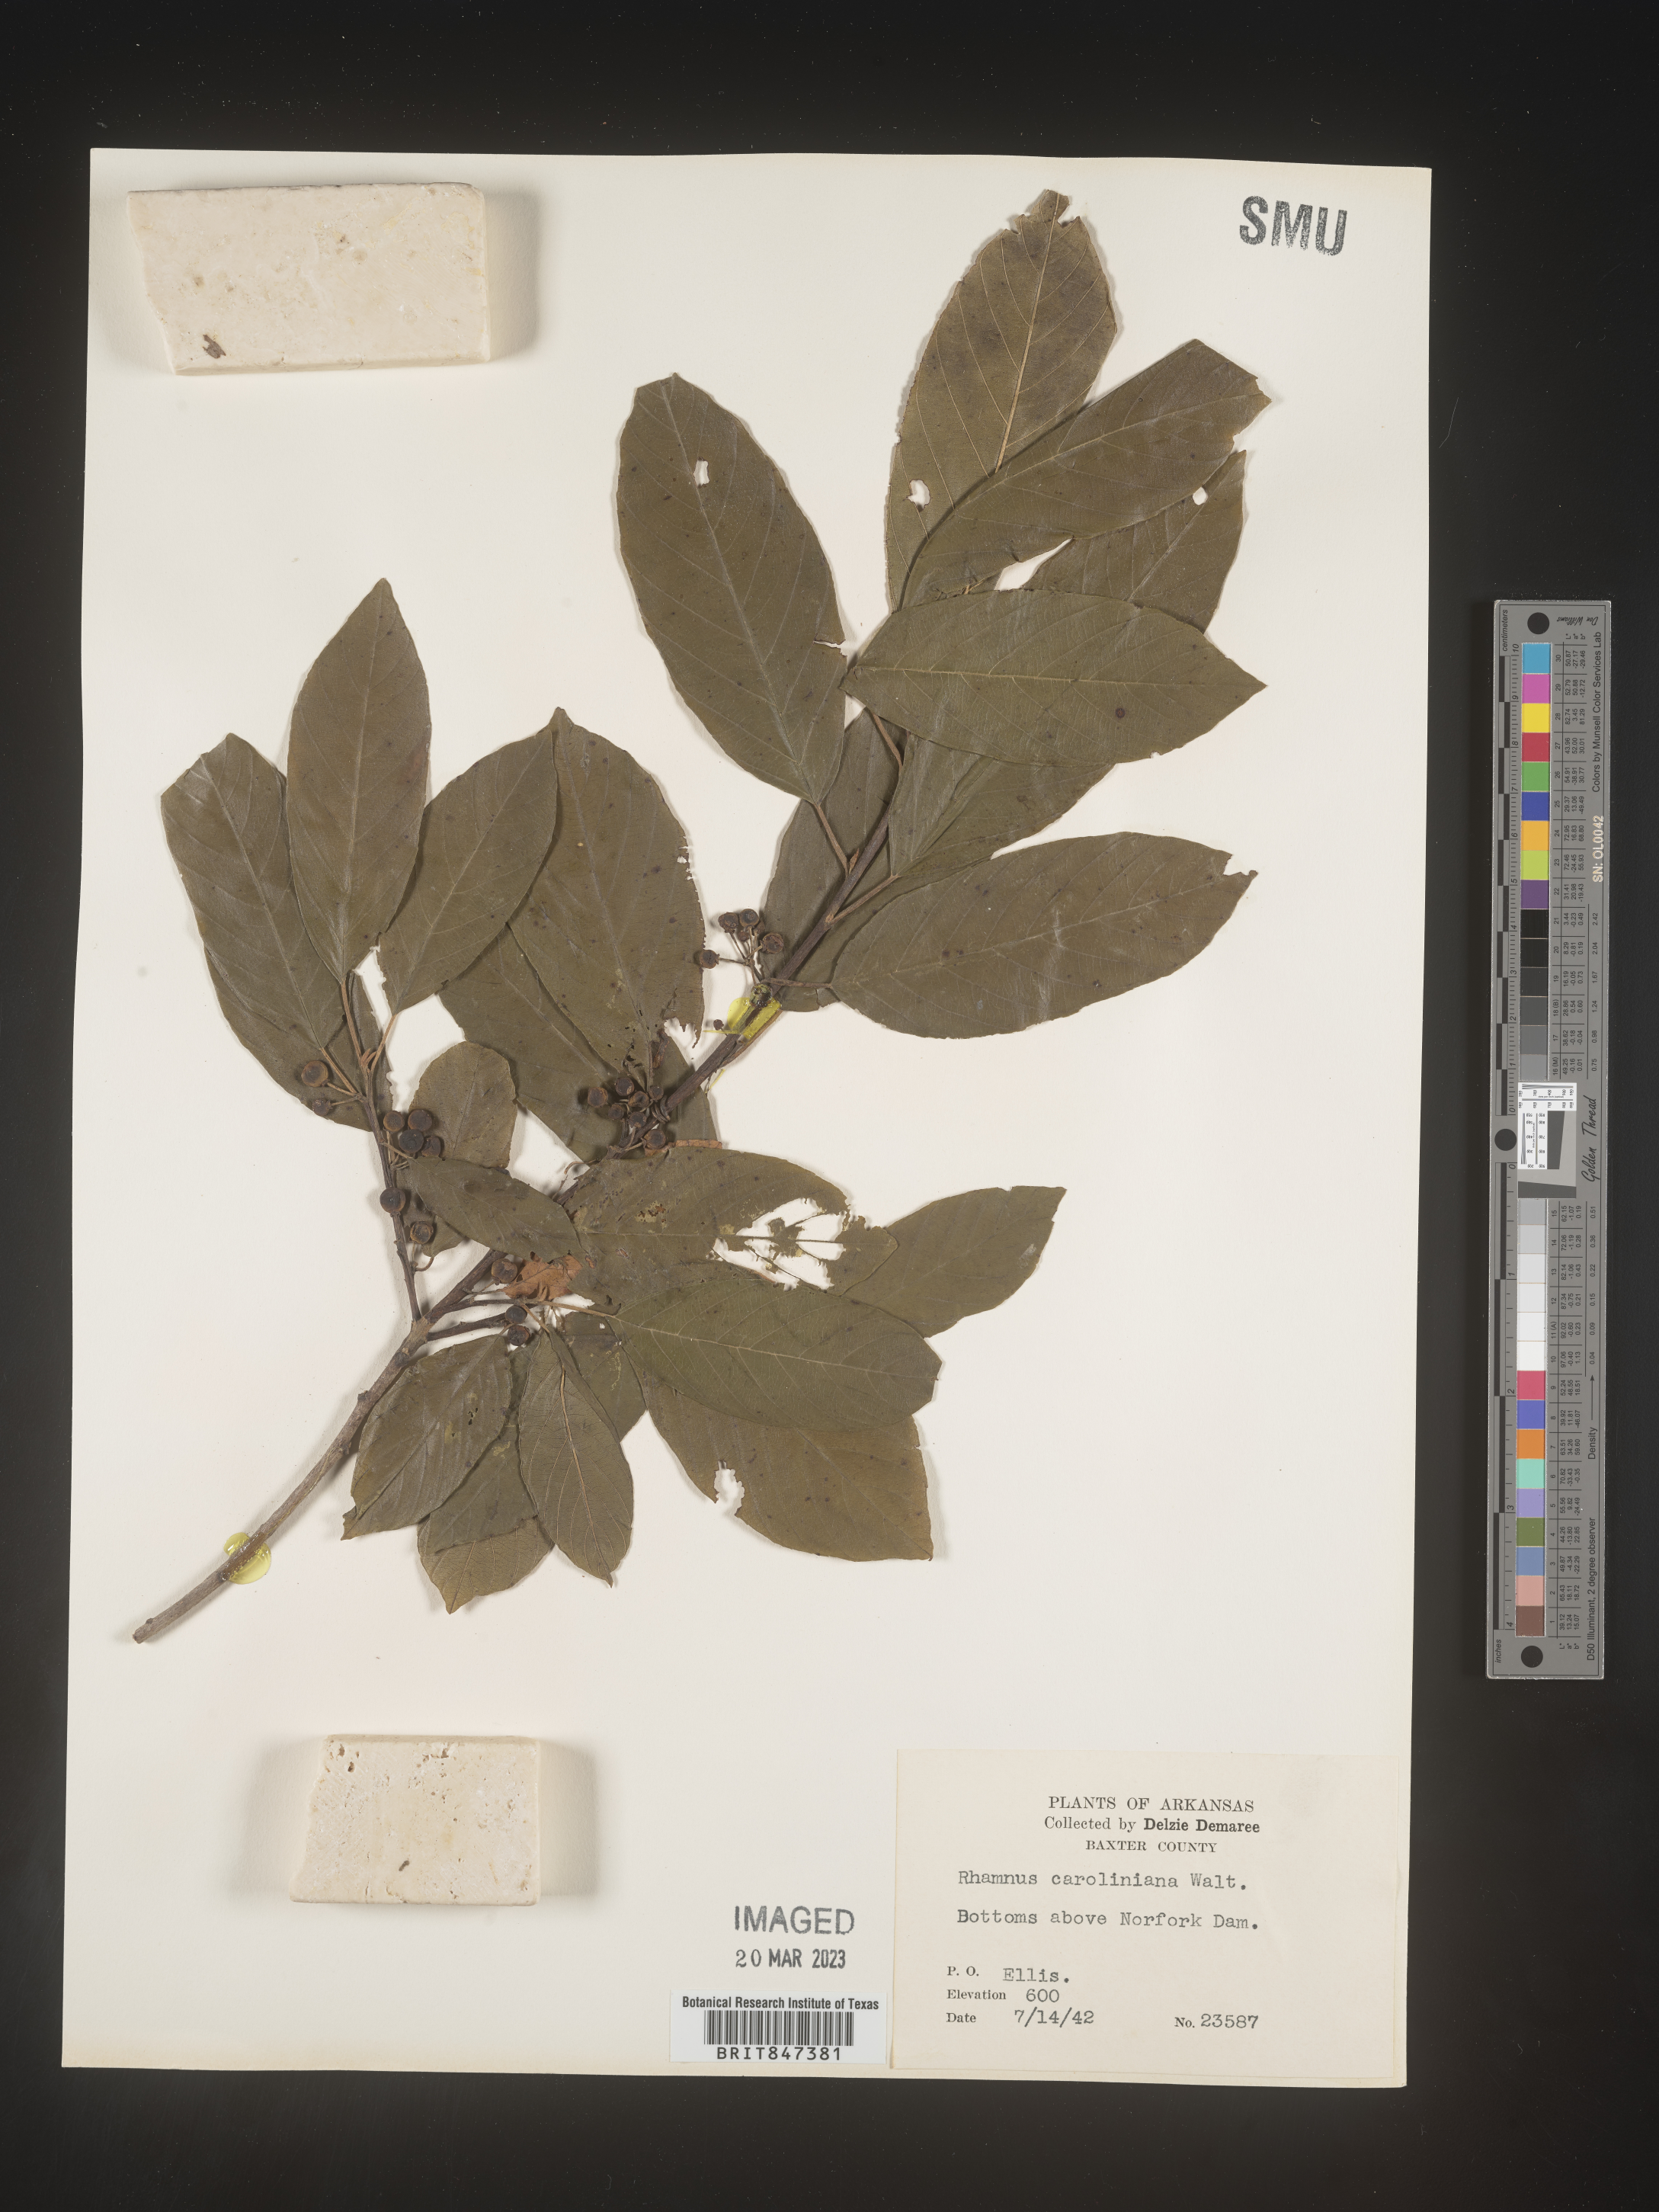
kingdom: Plantae
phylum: Tracheophyta
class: Magnoliopsida
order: Rosales
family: Rhamnaceae
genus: Frangula
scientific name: Frangula caroliniana
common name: Carolina buckthorn
